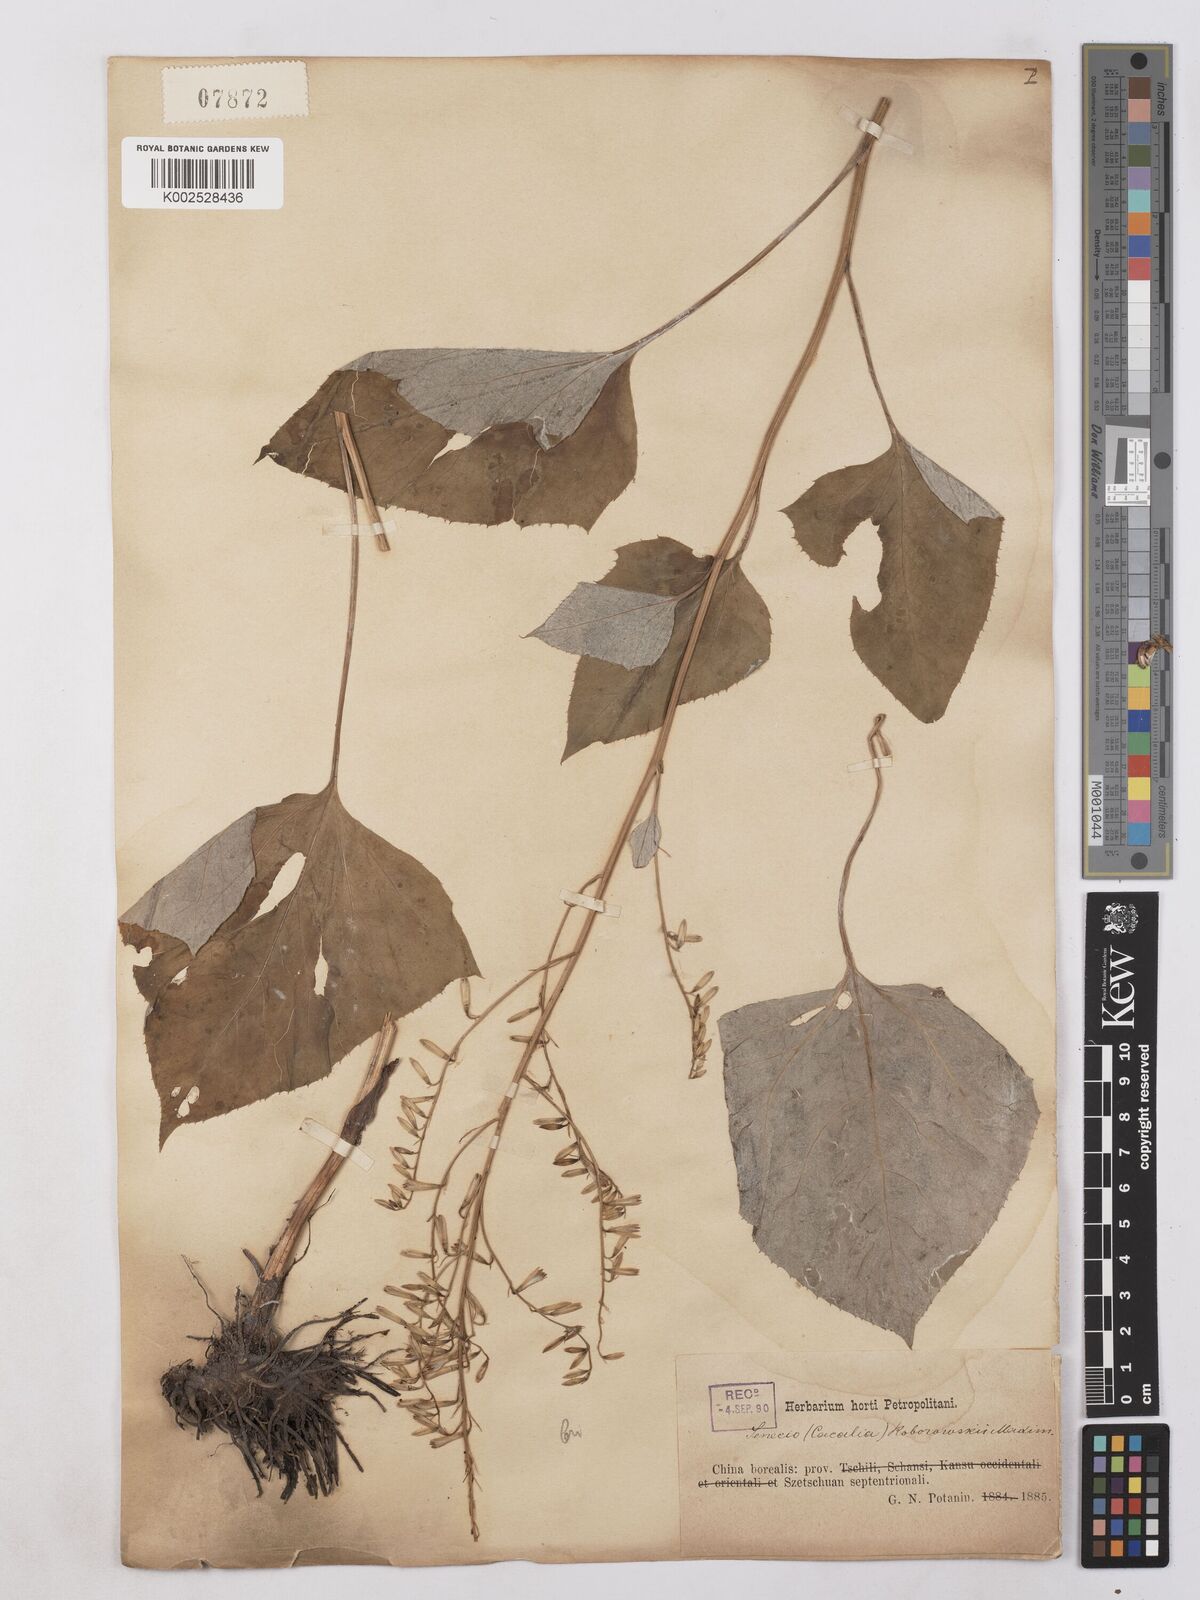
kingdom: Plantae
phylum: Tracheophyta
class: Magnoliopsida
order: Asterales
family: Asteraceae
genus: Parasenecio
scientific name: Parasenecio roborowskii
